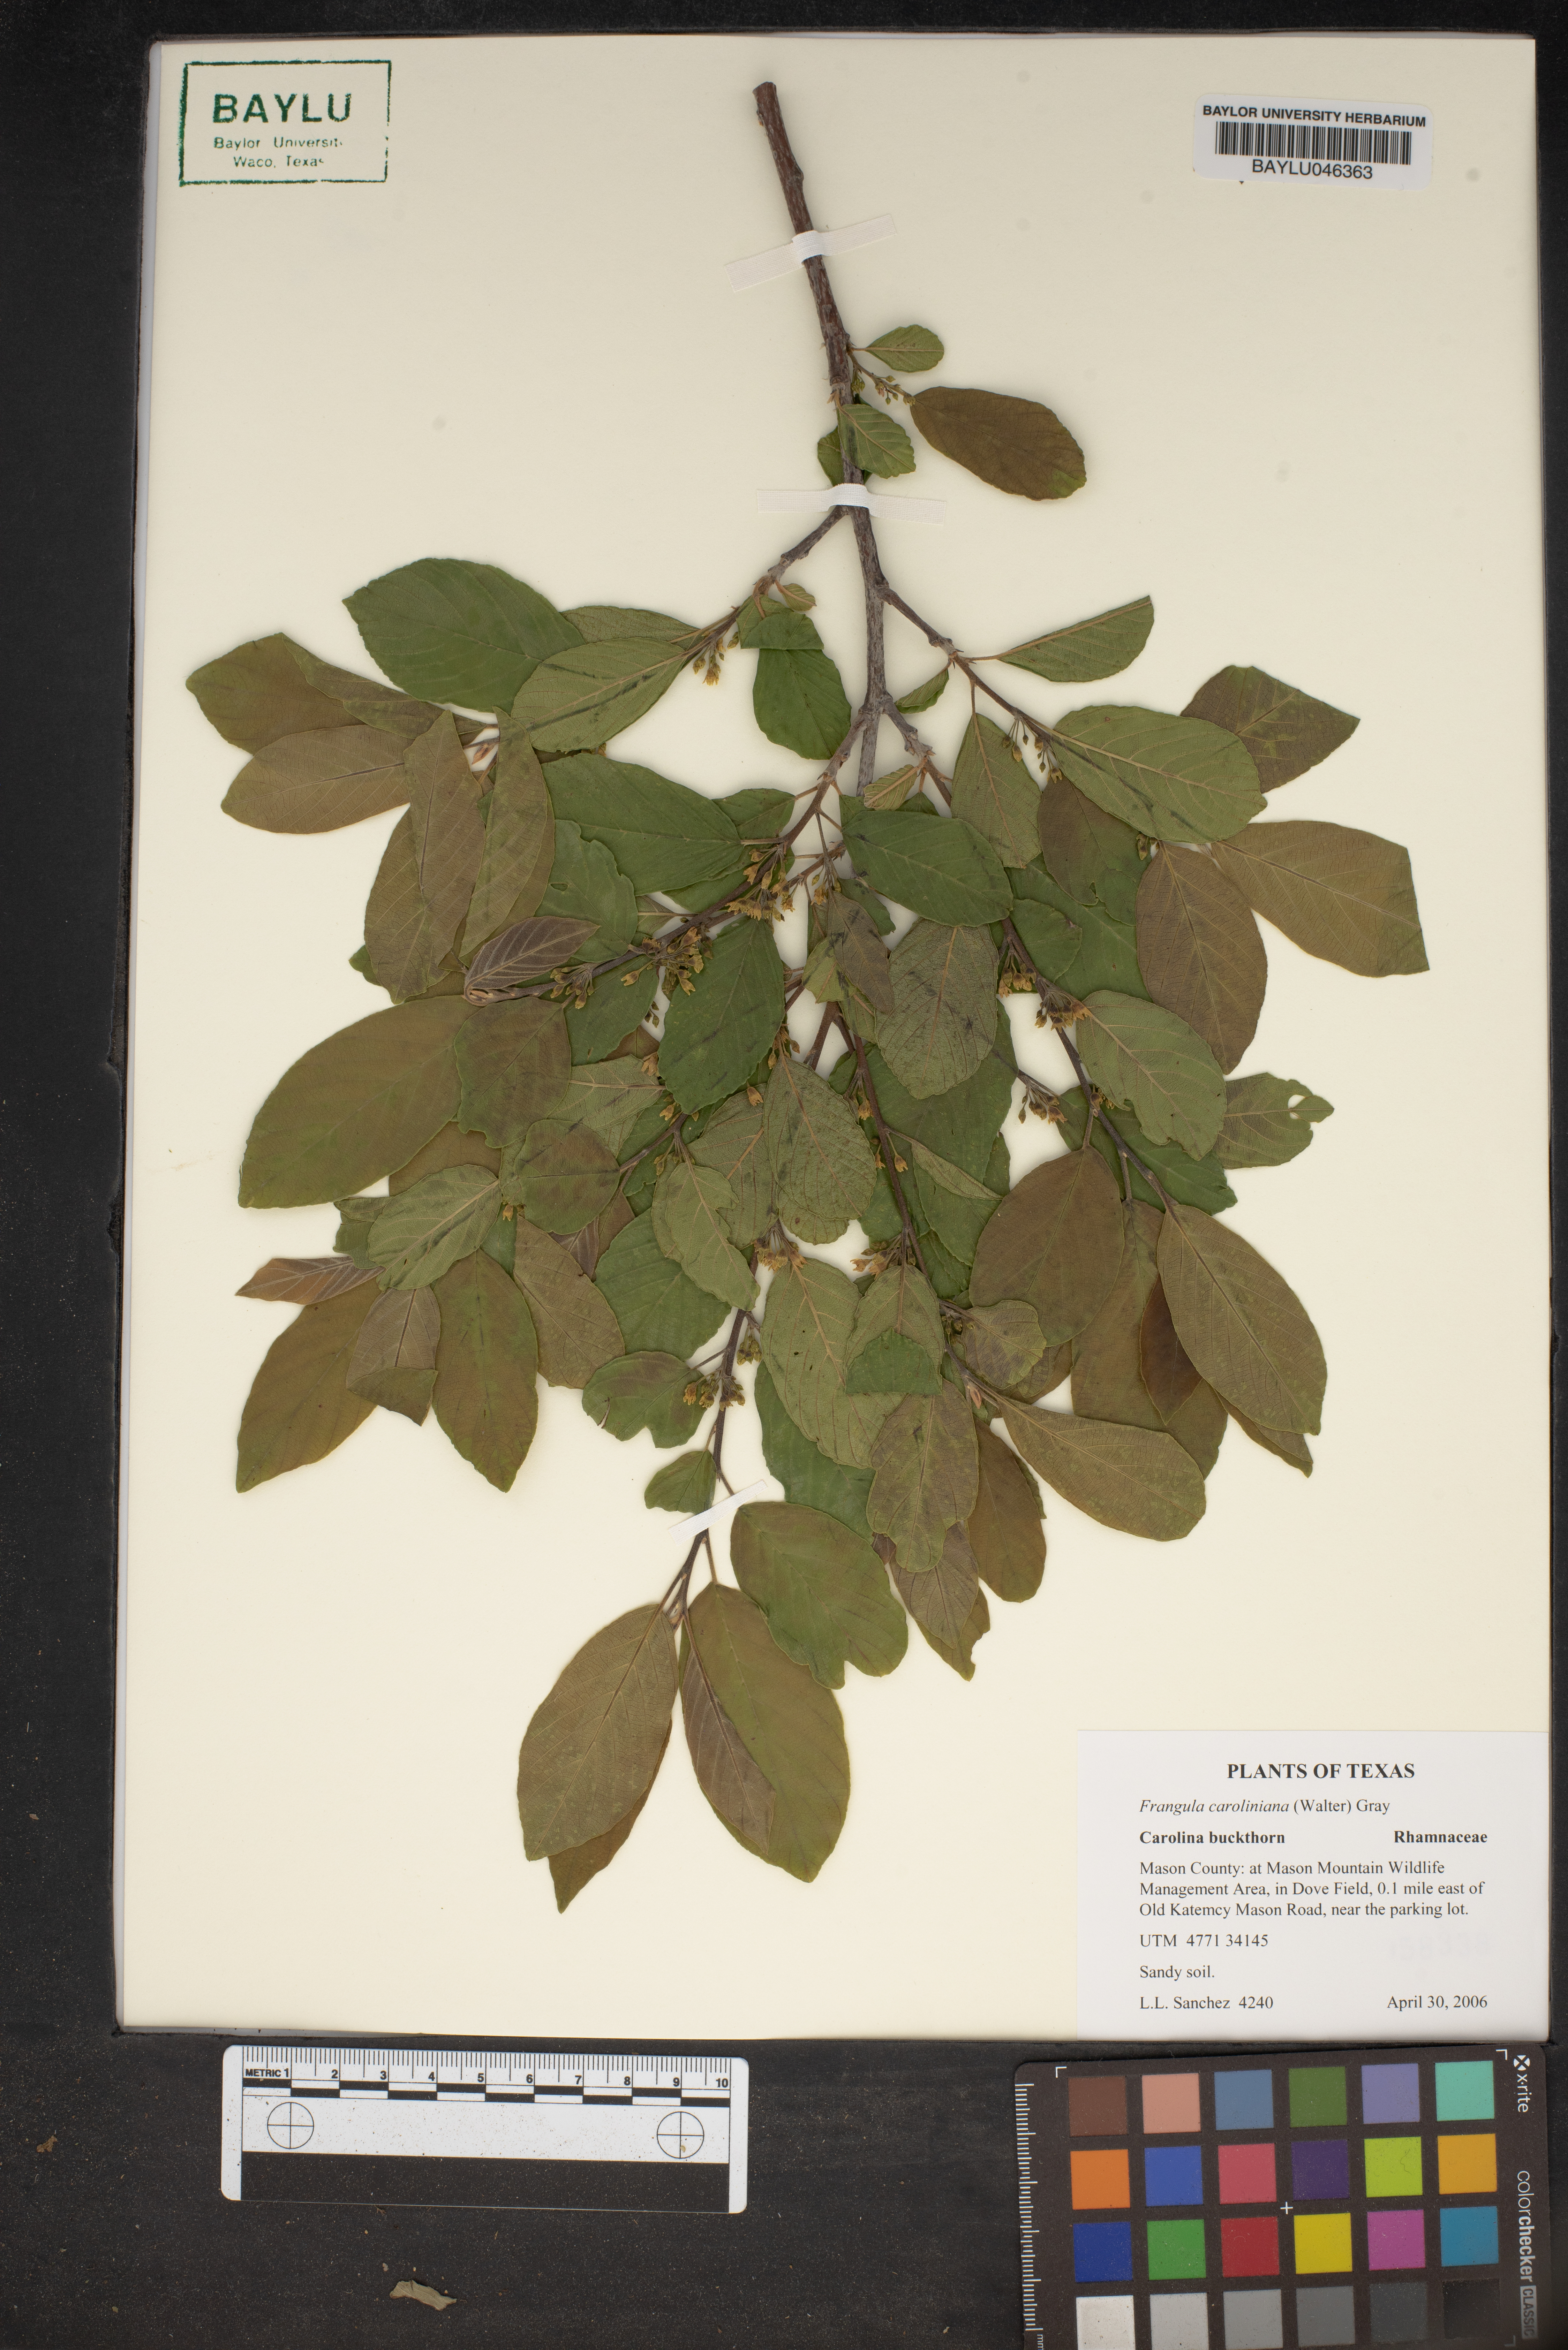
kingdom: Plantae
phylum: Tracheophyta
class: Magnoliopsida
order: Rosales
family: Rhamnaceae
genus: Frangula
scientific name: Frangula caroliniana
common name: Carolina buckthorn
